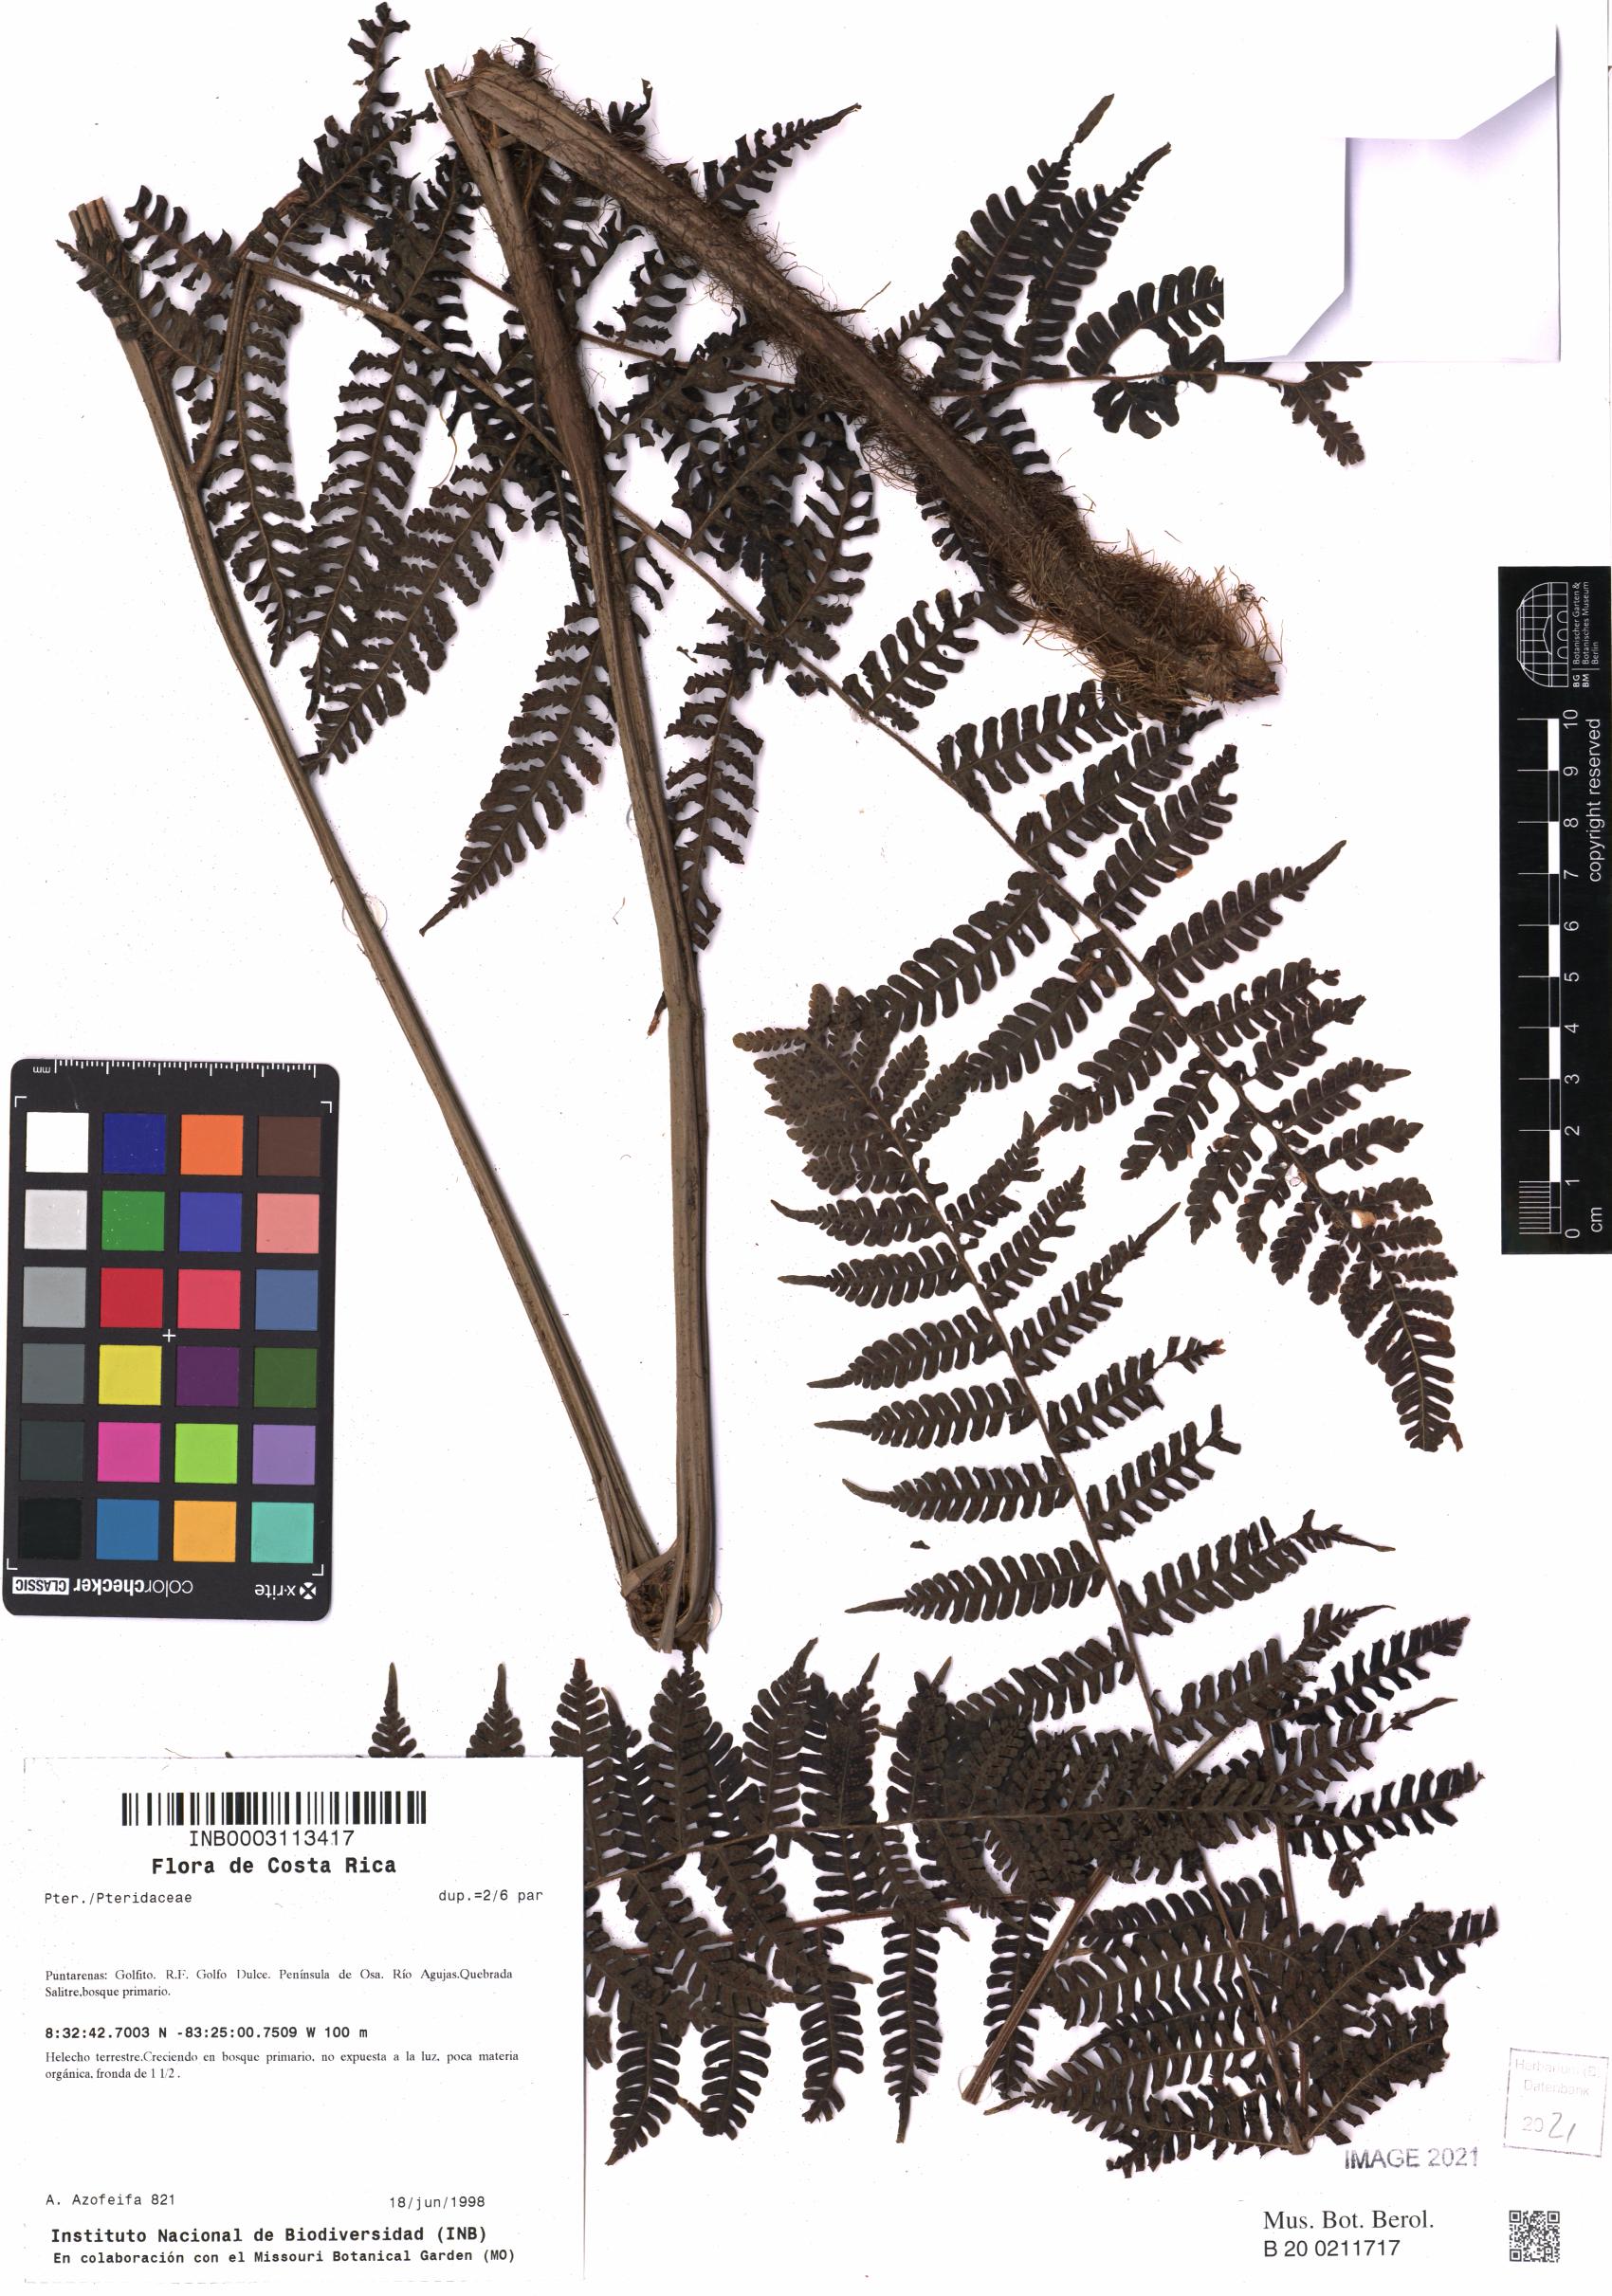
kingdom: Plantae
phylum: Tracheophyta
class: Polypodiopsida
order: Polypodiales
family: Pteridaceae
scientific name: Pteridaceae
